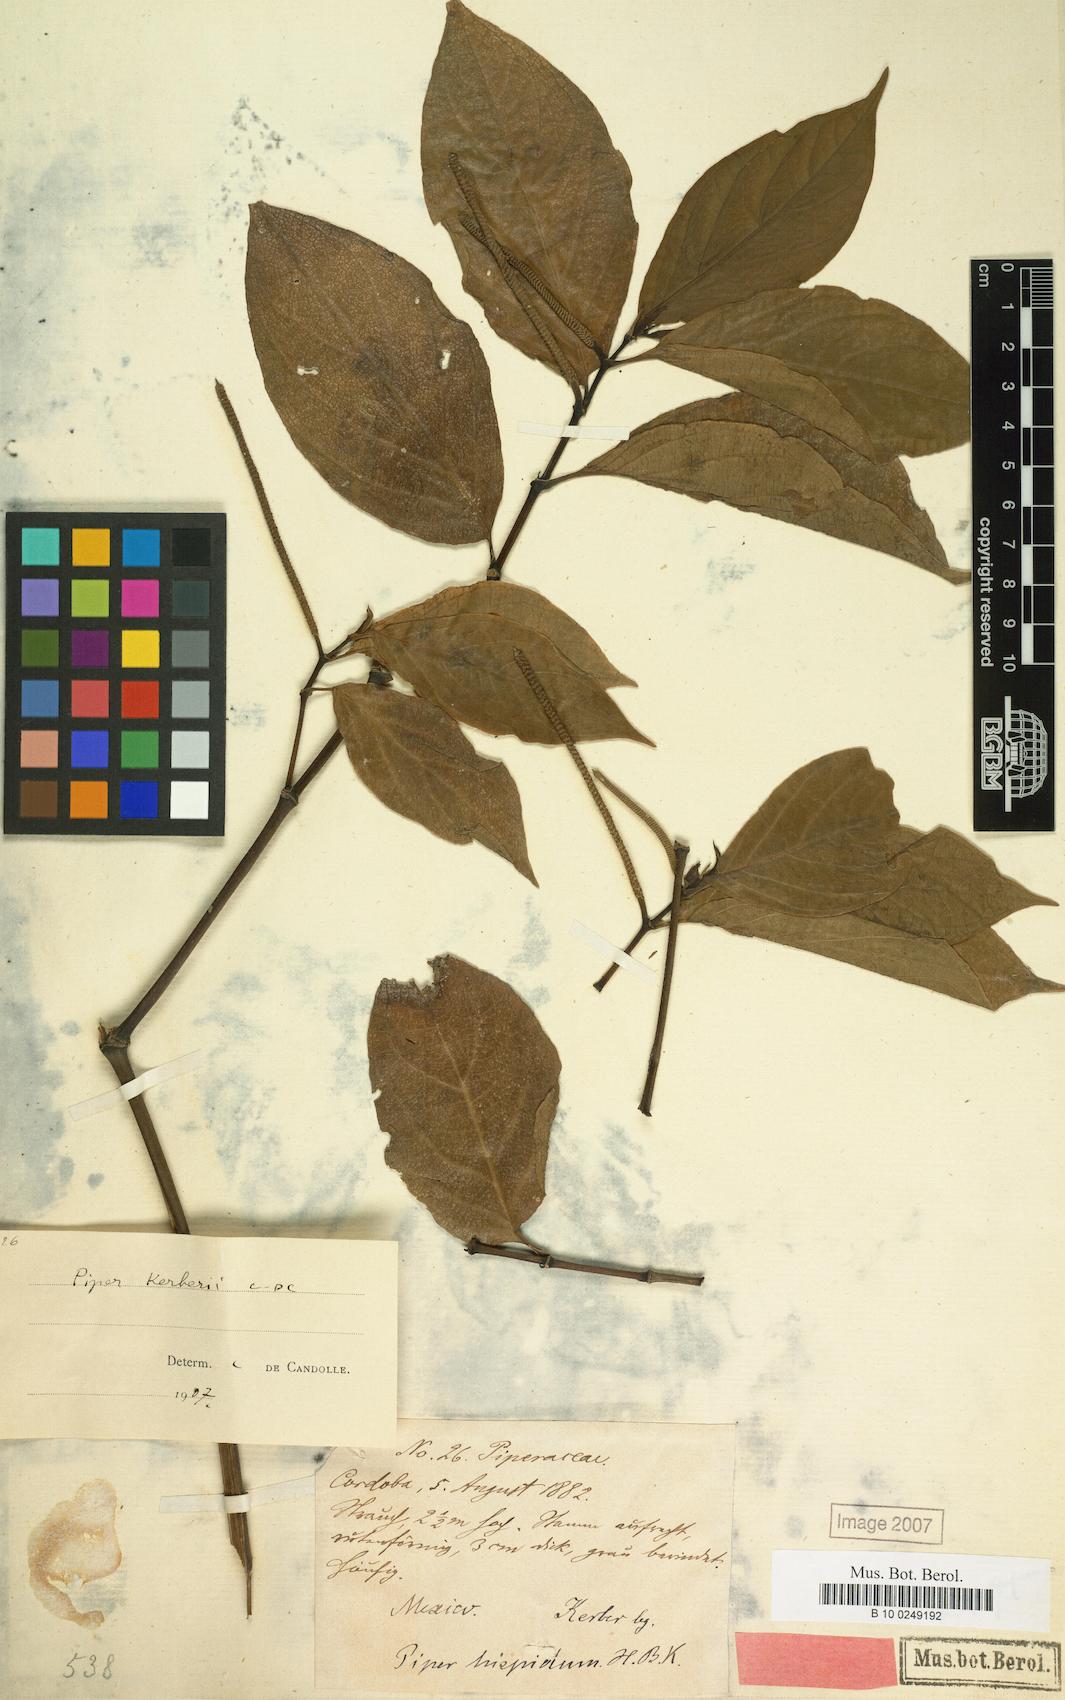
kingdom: Plantae
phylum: Tracheophyta
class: Magnoliopsida
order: Piperales
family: Piperaceae
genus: Piper
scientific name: Piper kerberi
